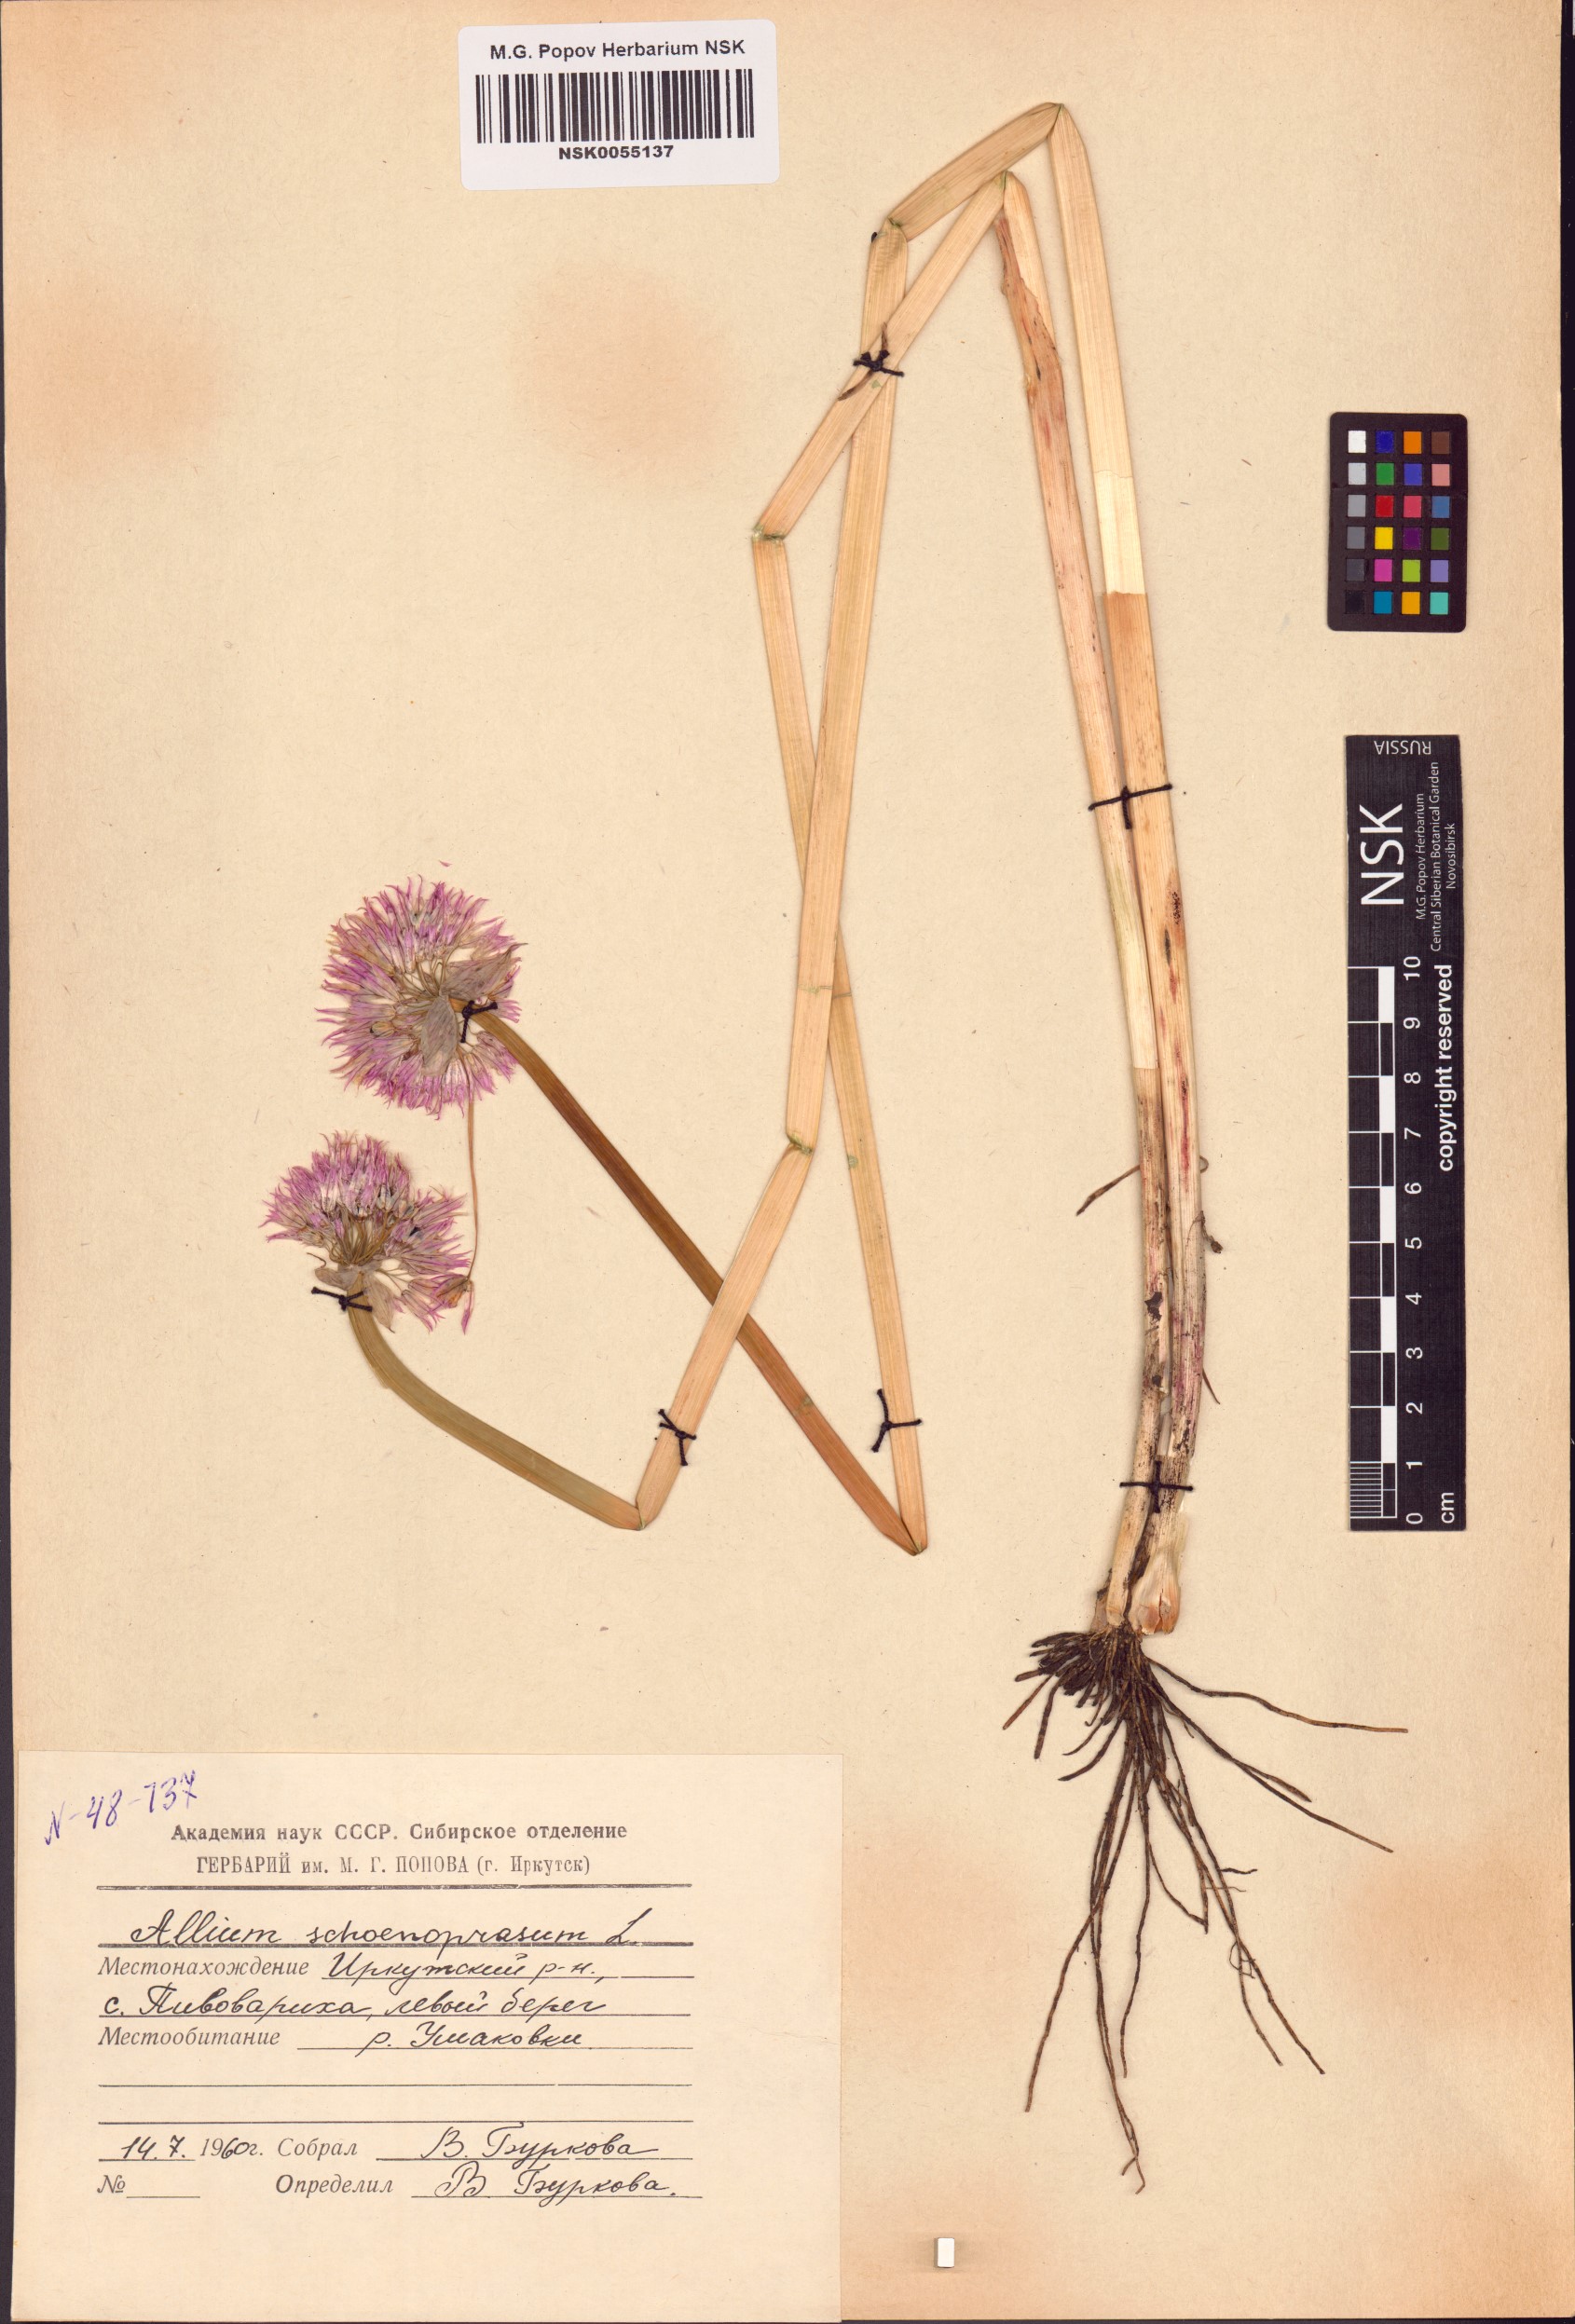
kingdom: Plantae
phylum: Tracheophyta
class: Liliopsida
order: Asparagales
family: Amaryllidaceae
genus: Allium
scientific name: Allium schoenoprasum
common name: Chives
